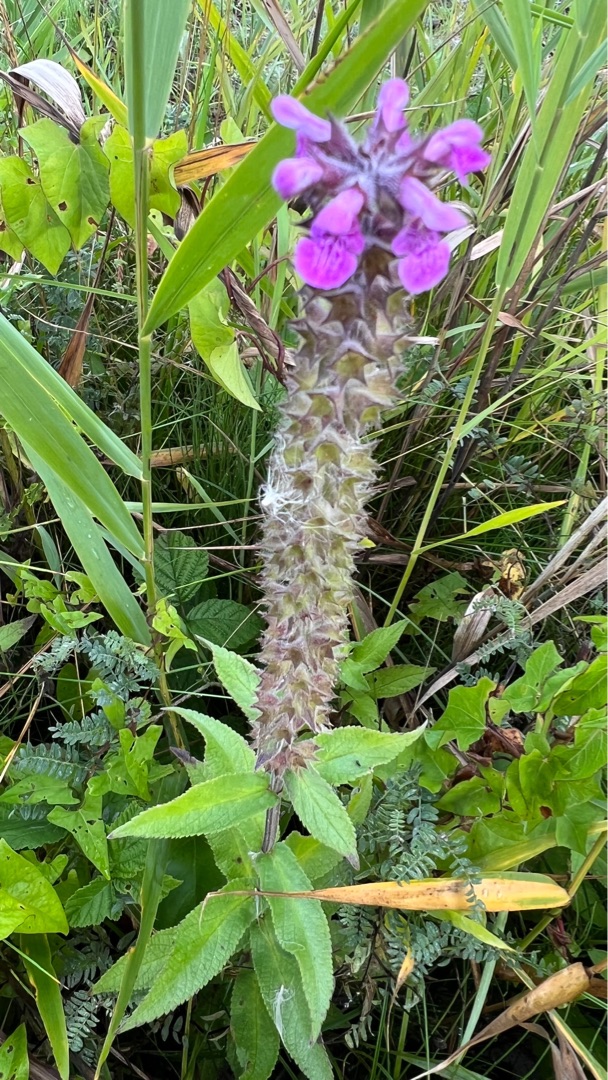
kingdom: Plantae
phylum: Tracheophyta
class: Magnoliopsida
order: Lamiales
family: Lamiaceae
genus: Stachys
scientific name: Stachys palustris
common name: Kær-galtetand
